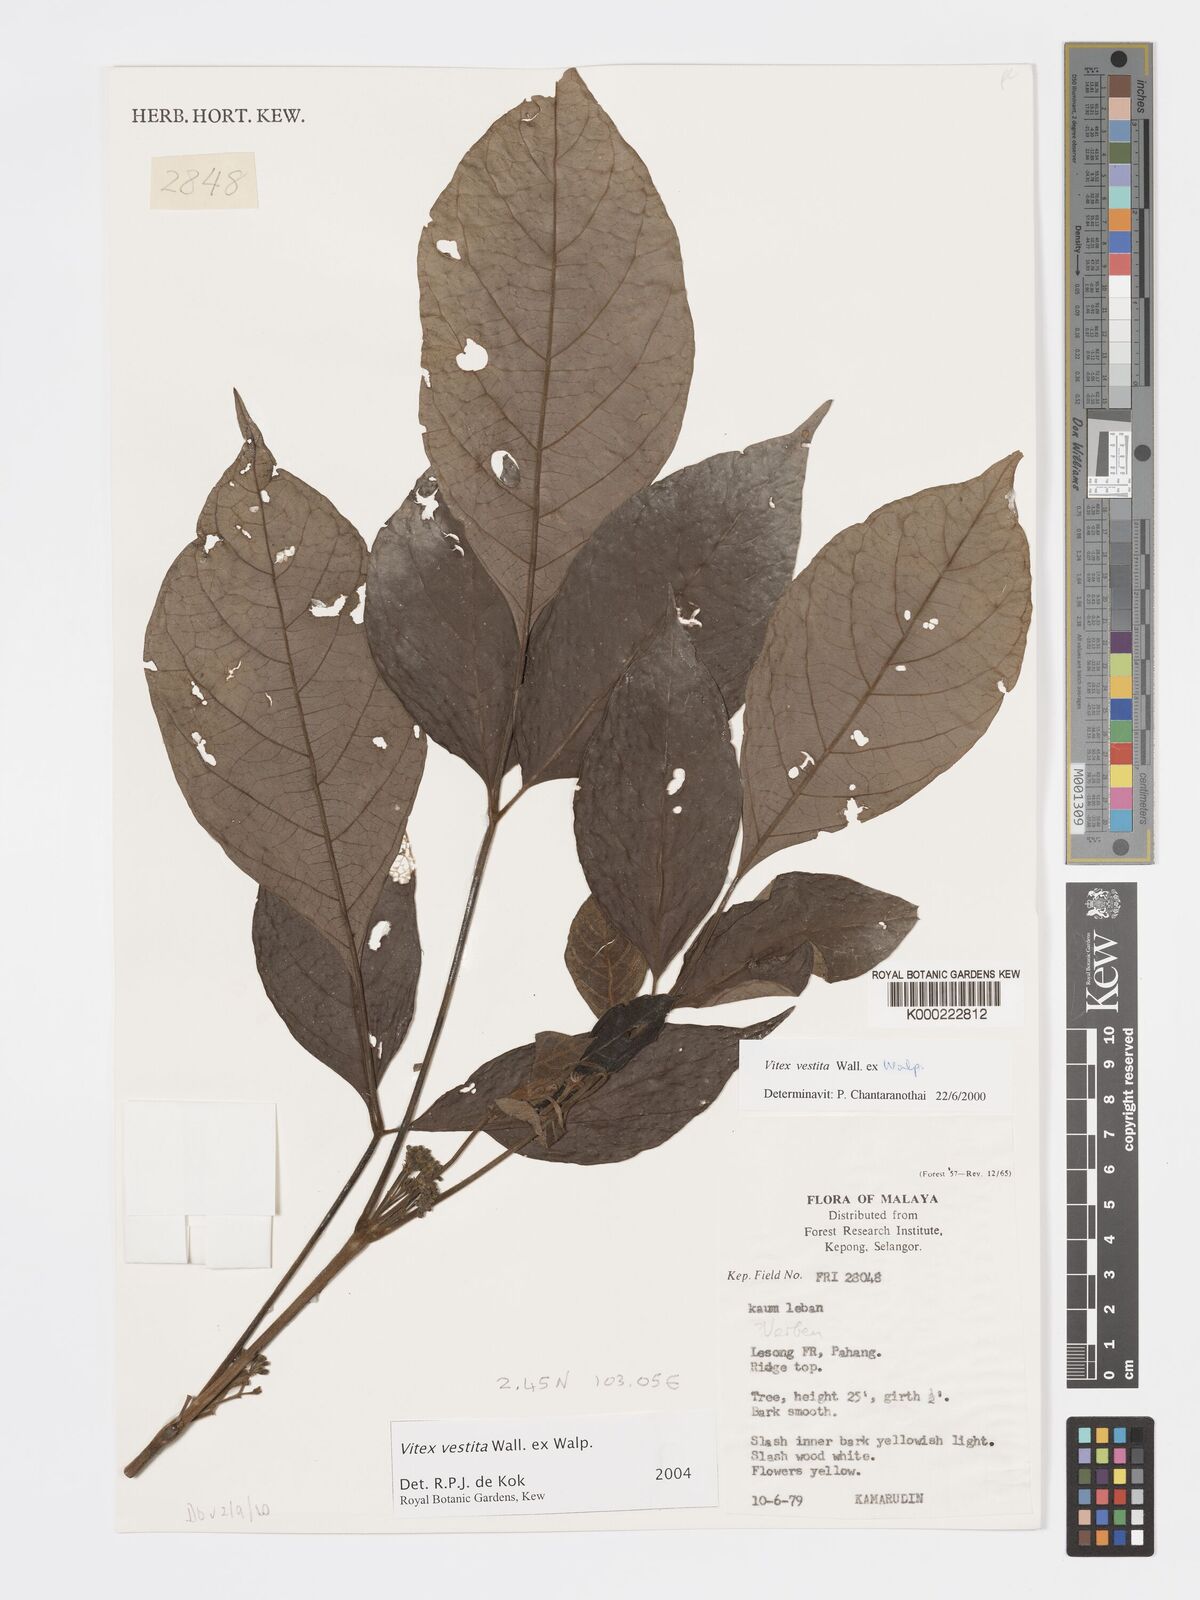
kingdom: Plantae
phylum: Tracheophyta
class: Magnoliopsida
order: Lamiales
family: Lamiaceae
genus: Vitex
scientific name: Vitex vestita
